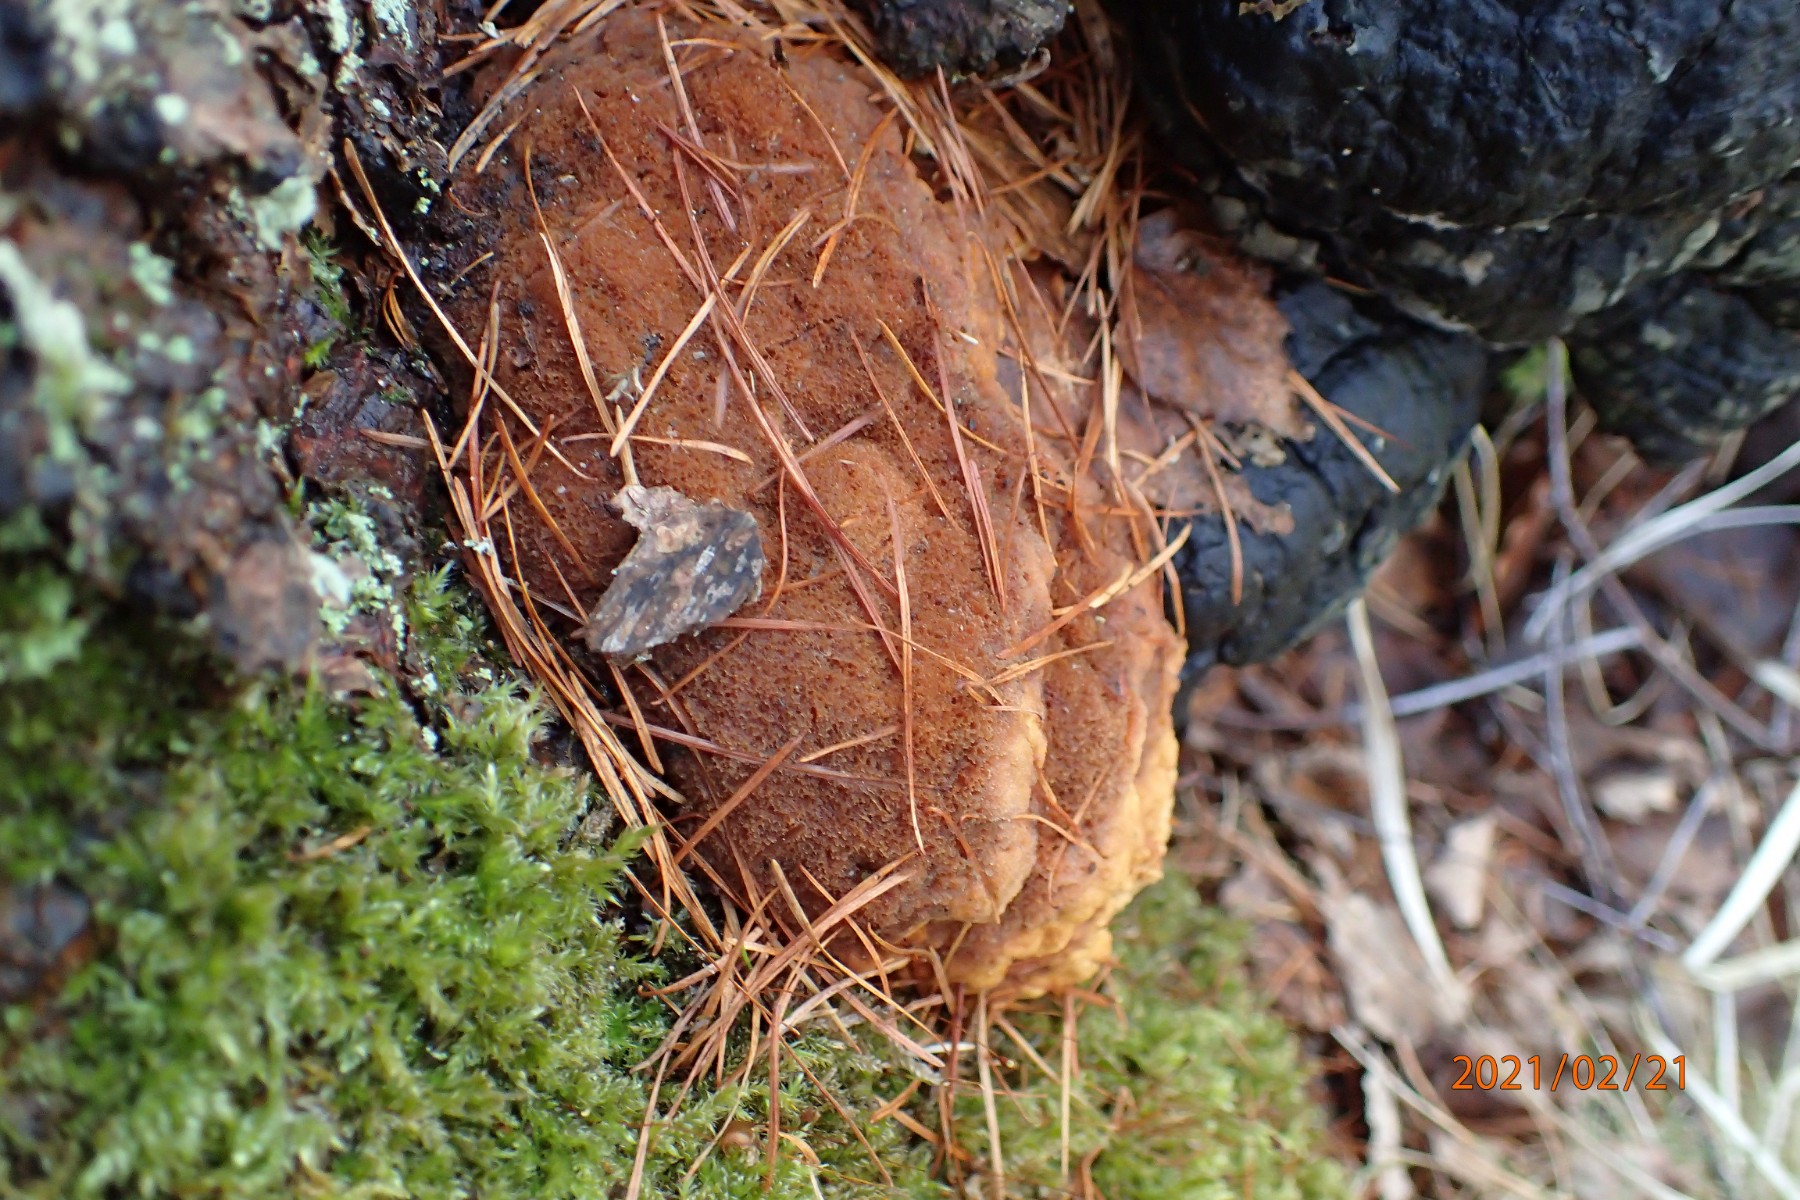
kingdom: Fungi
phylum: Basidiomycota
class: Agaricomycetes
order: Polyporales
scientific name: Polyporales
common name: poresvampordenen
